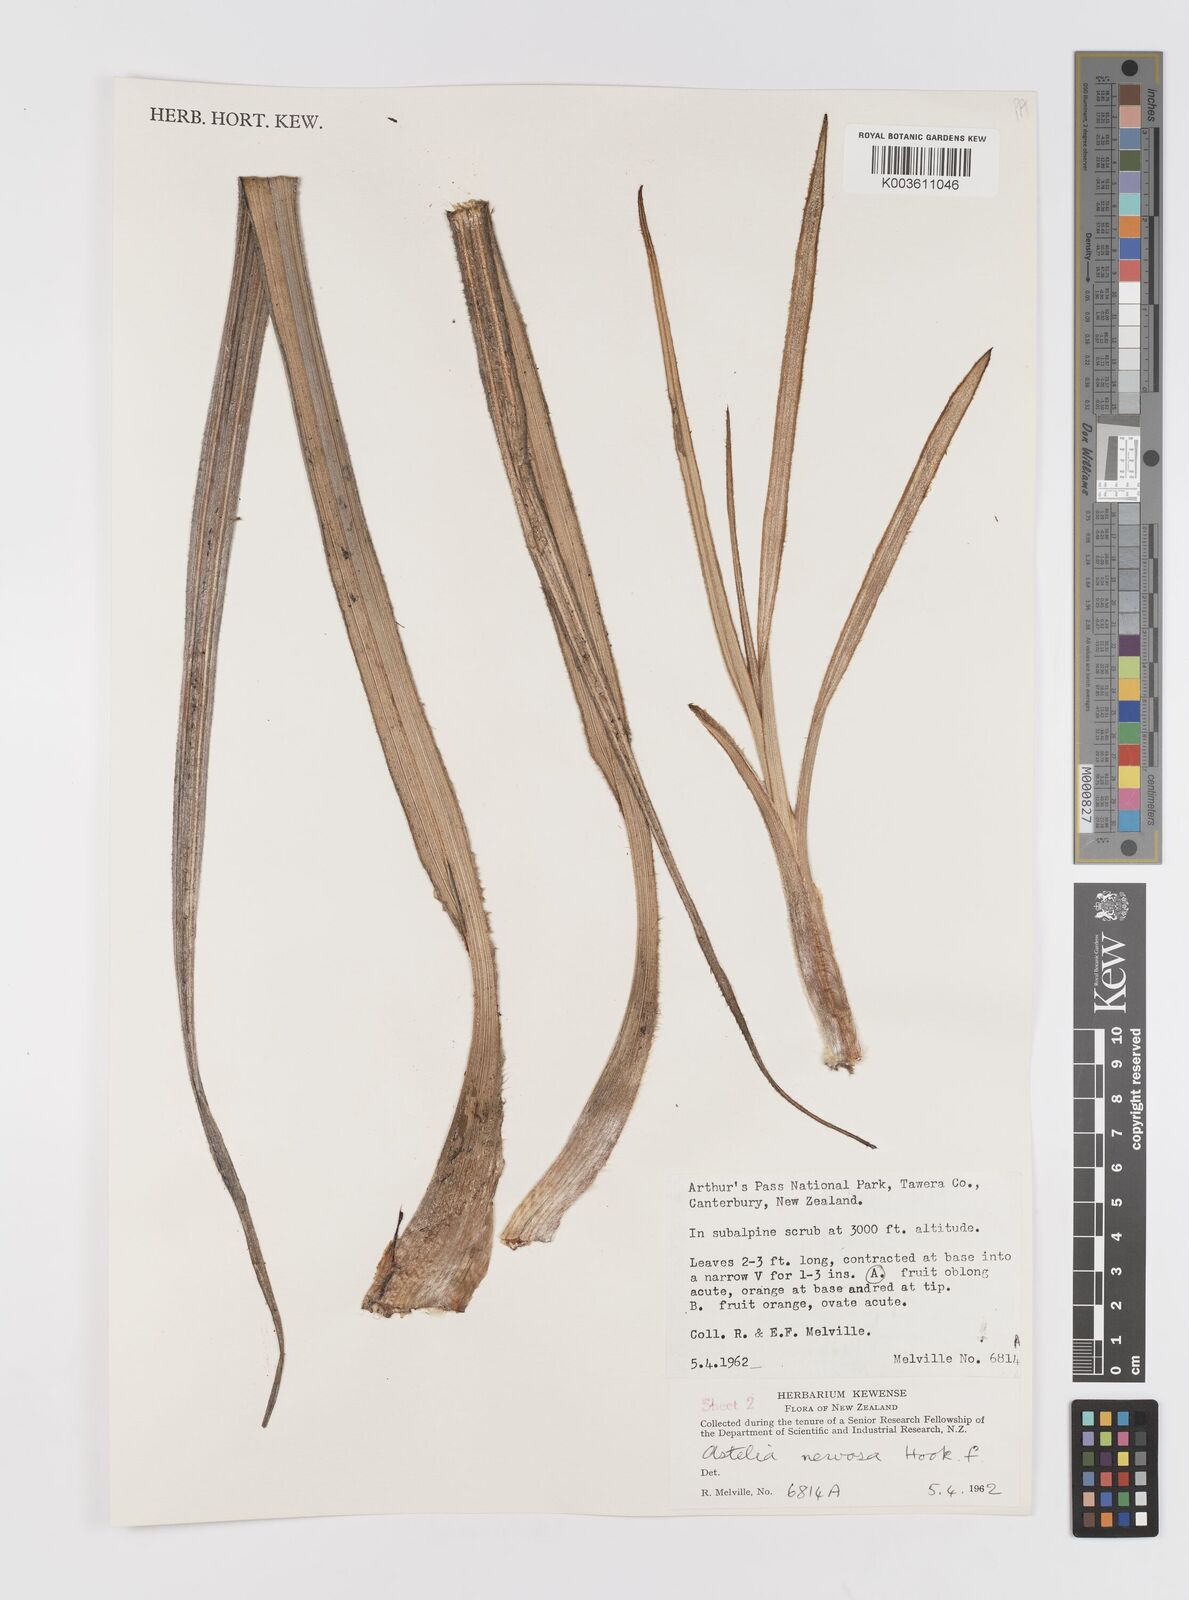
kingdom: Plantae
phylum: Tracheophyta
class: Liliopsida
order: Asparagales
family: Asteliaceae
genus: Astelia
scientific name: Astelia nervosa
